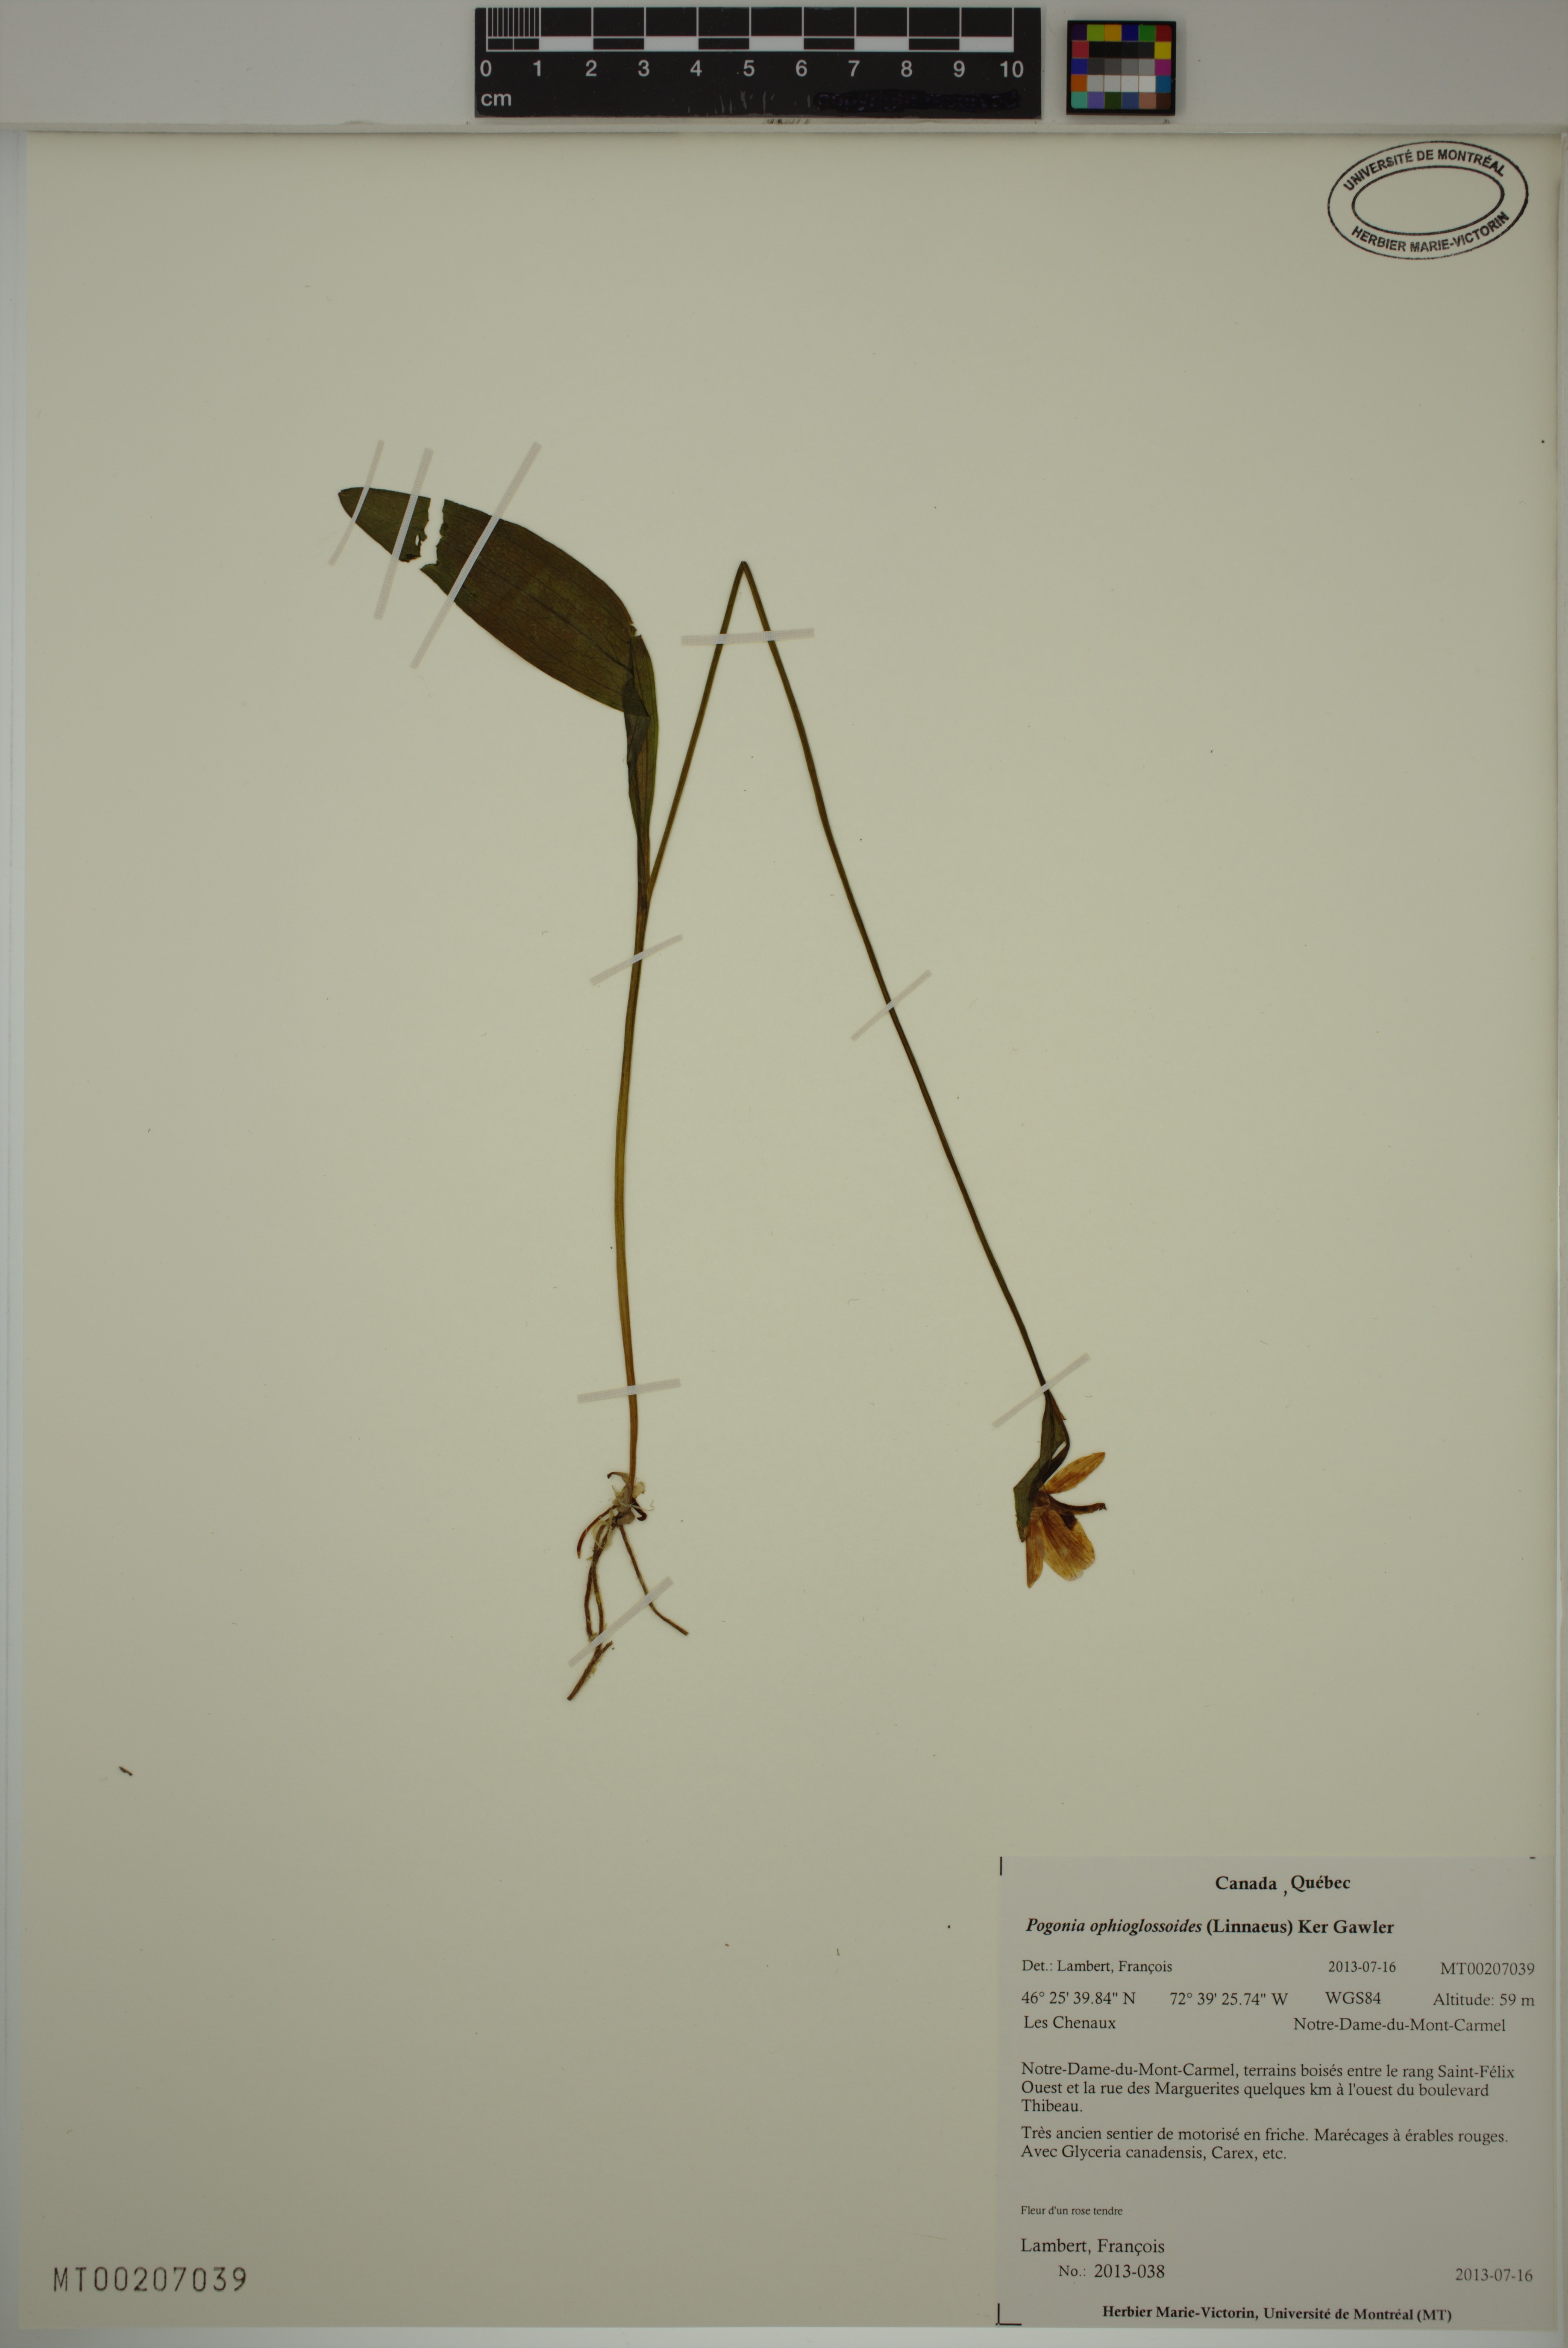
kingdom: Plantae
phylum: Tracheophyta
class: Liliopsida
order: Asparagales
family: Orchidaceae
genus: Pogonia
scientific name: Pogonia ophioglossoides
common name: Rose pogonia
